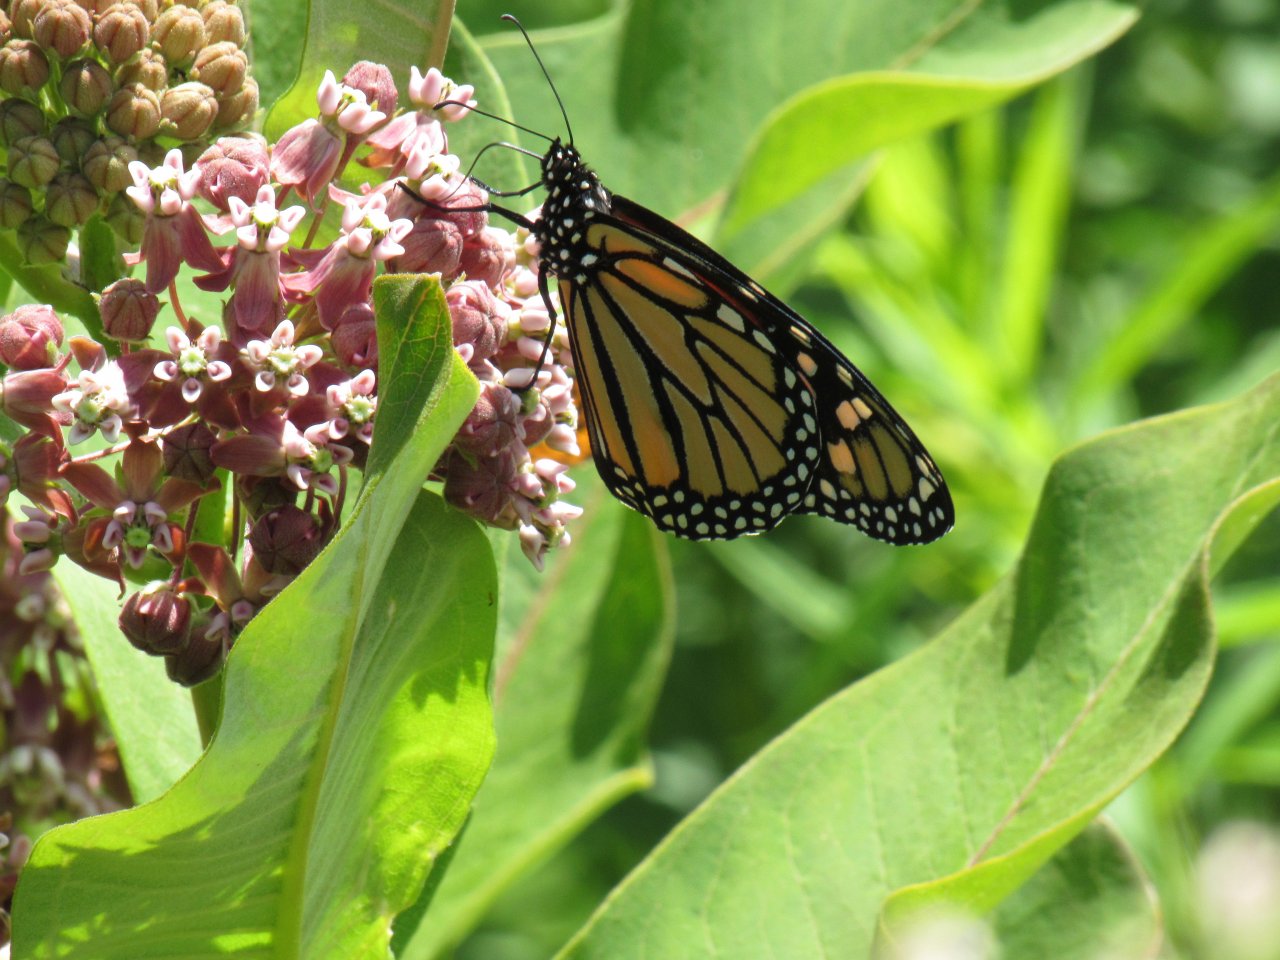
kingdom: Animalia
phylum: Arthropoda
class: Insecta
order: Lepidoptera
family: Nymphalidae
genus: Danaus
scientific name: Danaus plexippus
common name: Monarch
